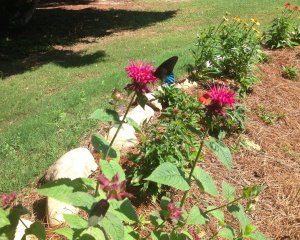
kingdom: Animalia
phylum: Arthropoda
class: Insecta
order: Lepidoptera
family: Papilionidae
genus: Battus
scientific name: Battus philenor
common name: Pipevine Swallowtail
